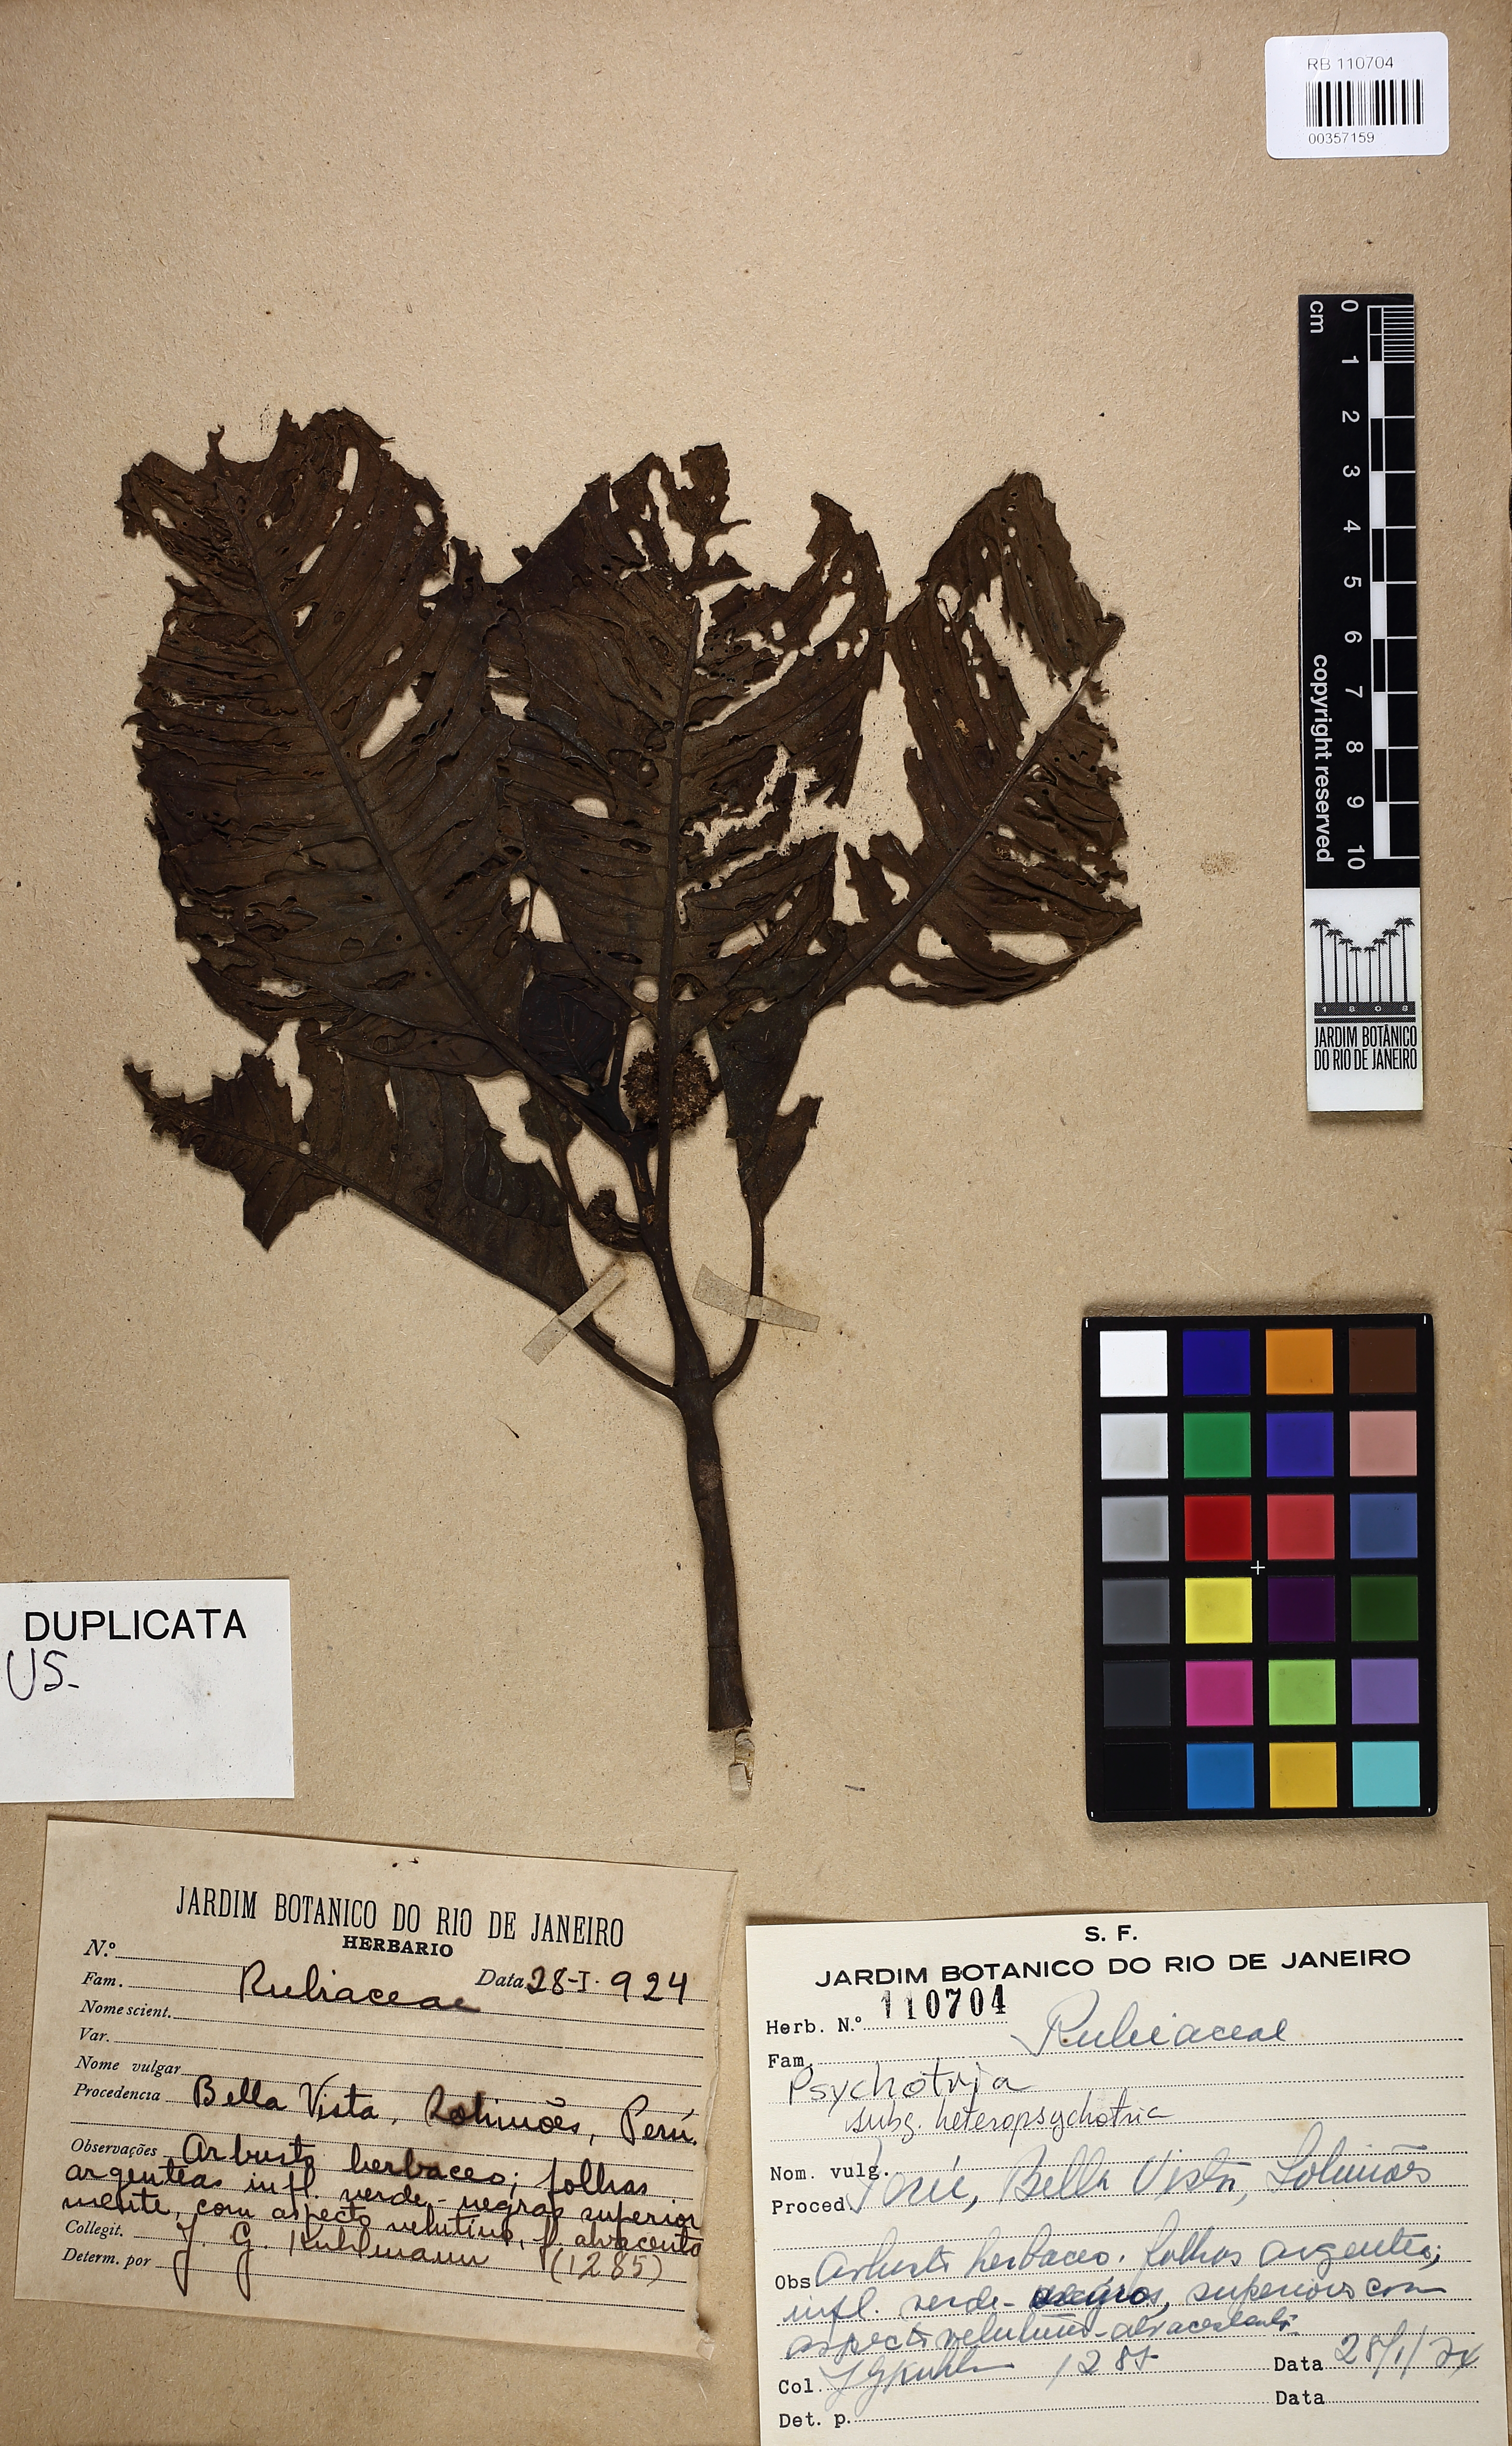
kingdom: Plantae
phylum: Tracheophyta
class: Magnoliopsida
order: Gentianales
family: Rubiaceae
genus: Psychotria
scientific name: Psychotria
